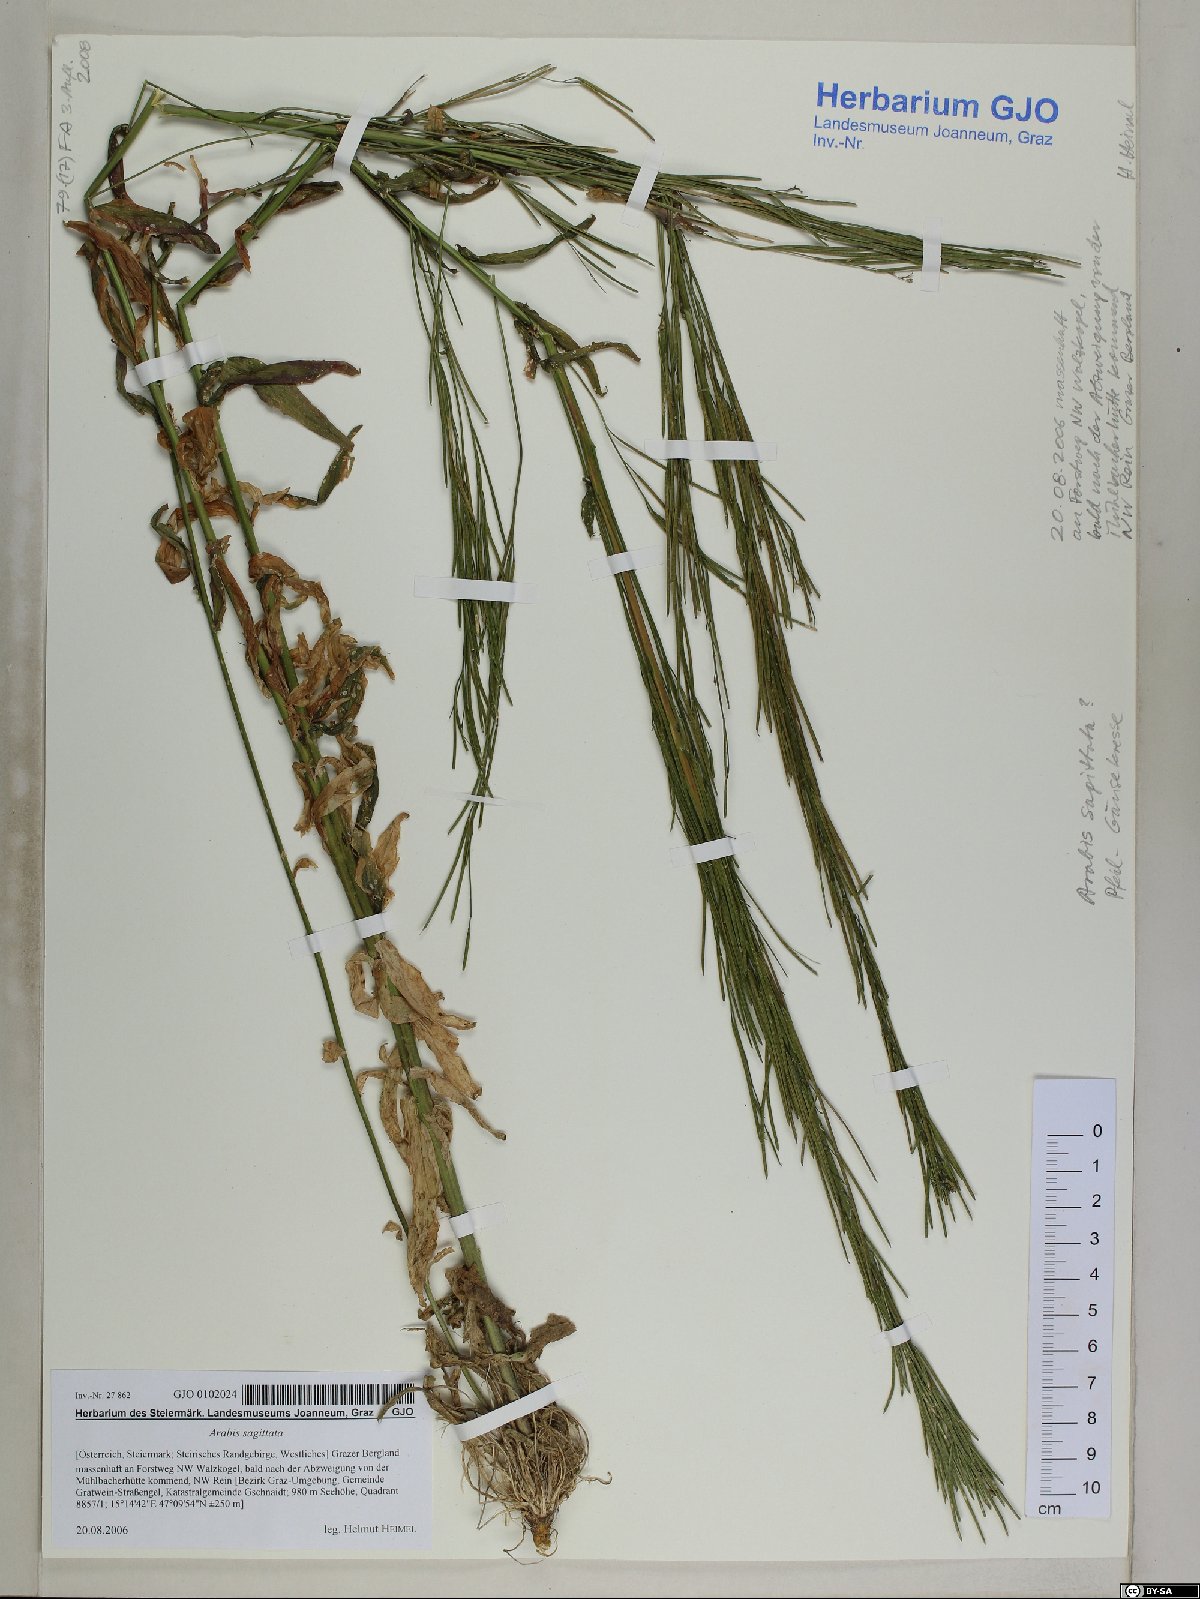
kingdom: Plantae
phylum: Tracheophyta
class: Magnoliopsida
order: Brassicales
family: Brassicaceae
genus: Arabis
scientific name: Arabis sagittata
